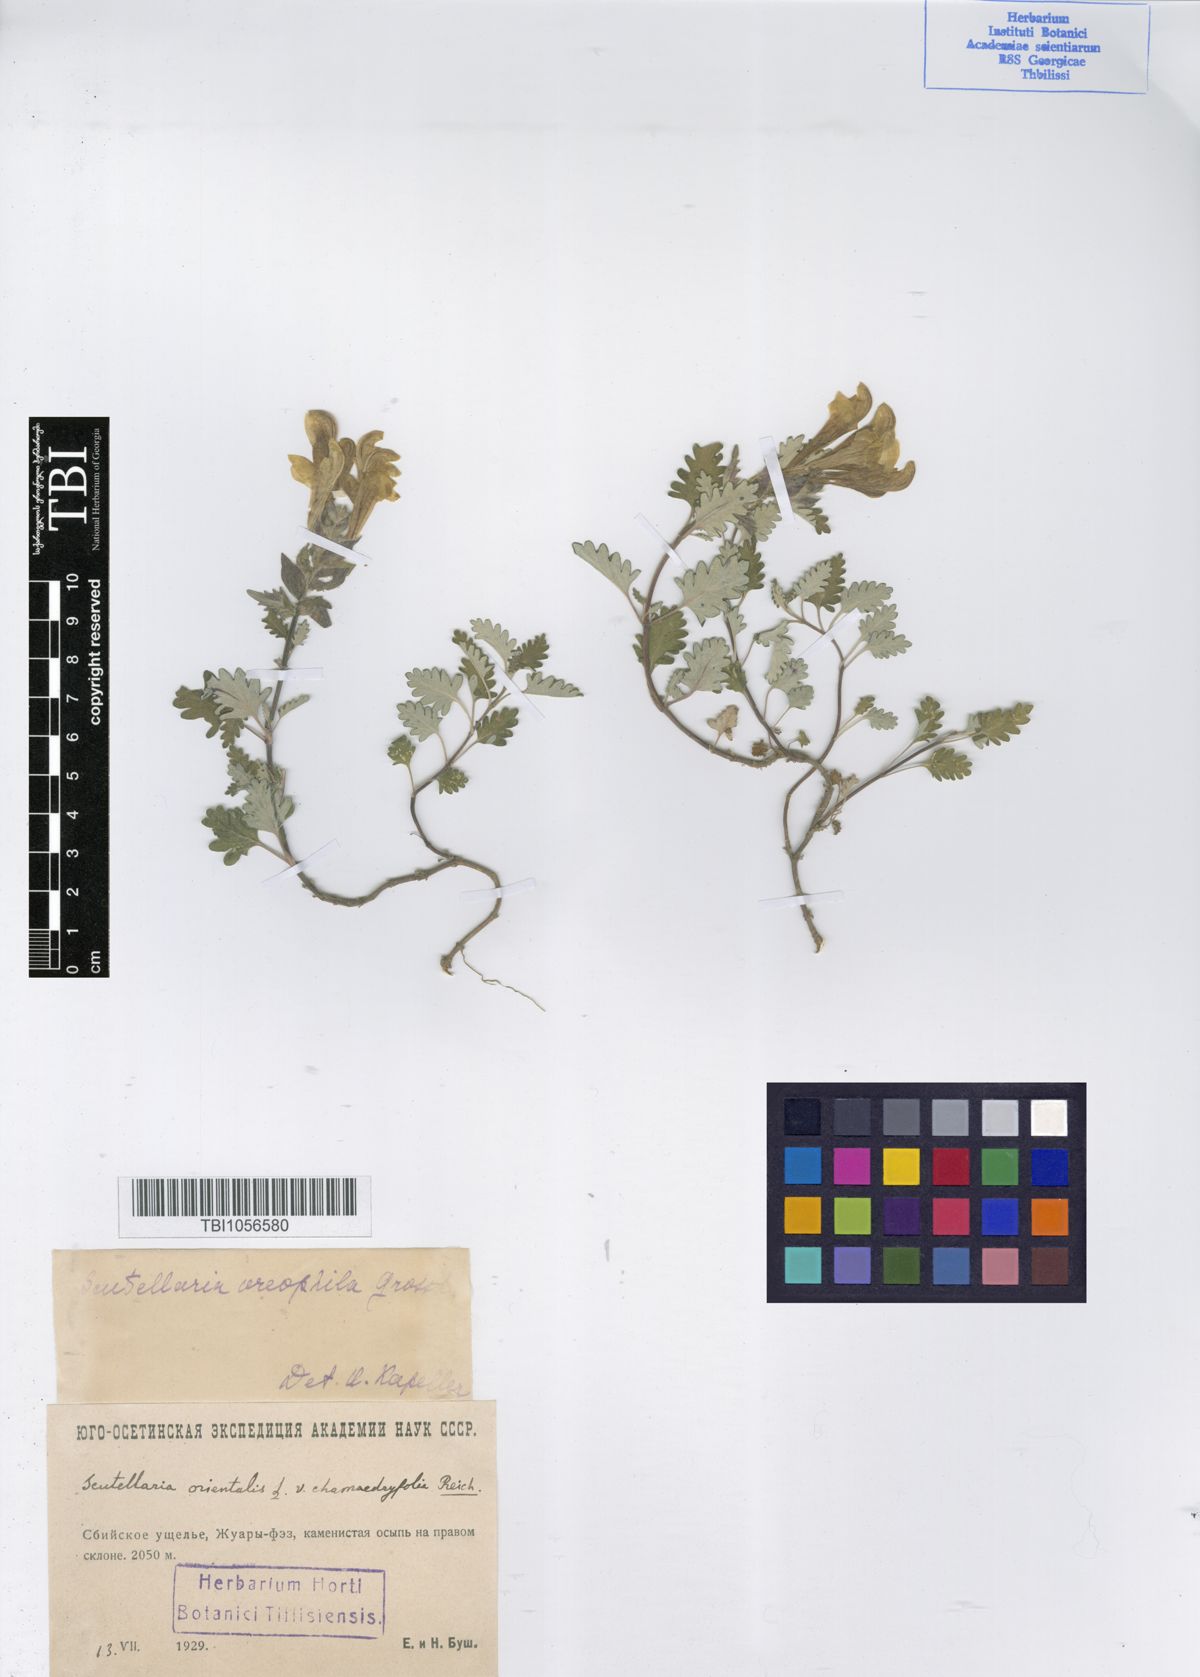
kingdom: Plantae
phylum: Tracheophyta
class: Magnoliopsida
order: Lamiales
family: Lamiaceae
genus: Scutellaria
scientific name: Scutellaria oreophila
